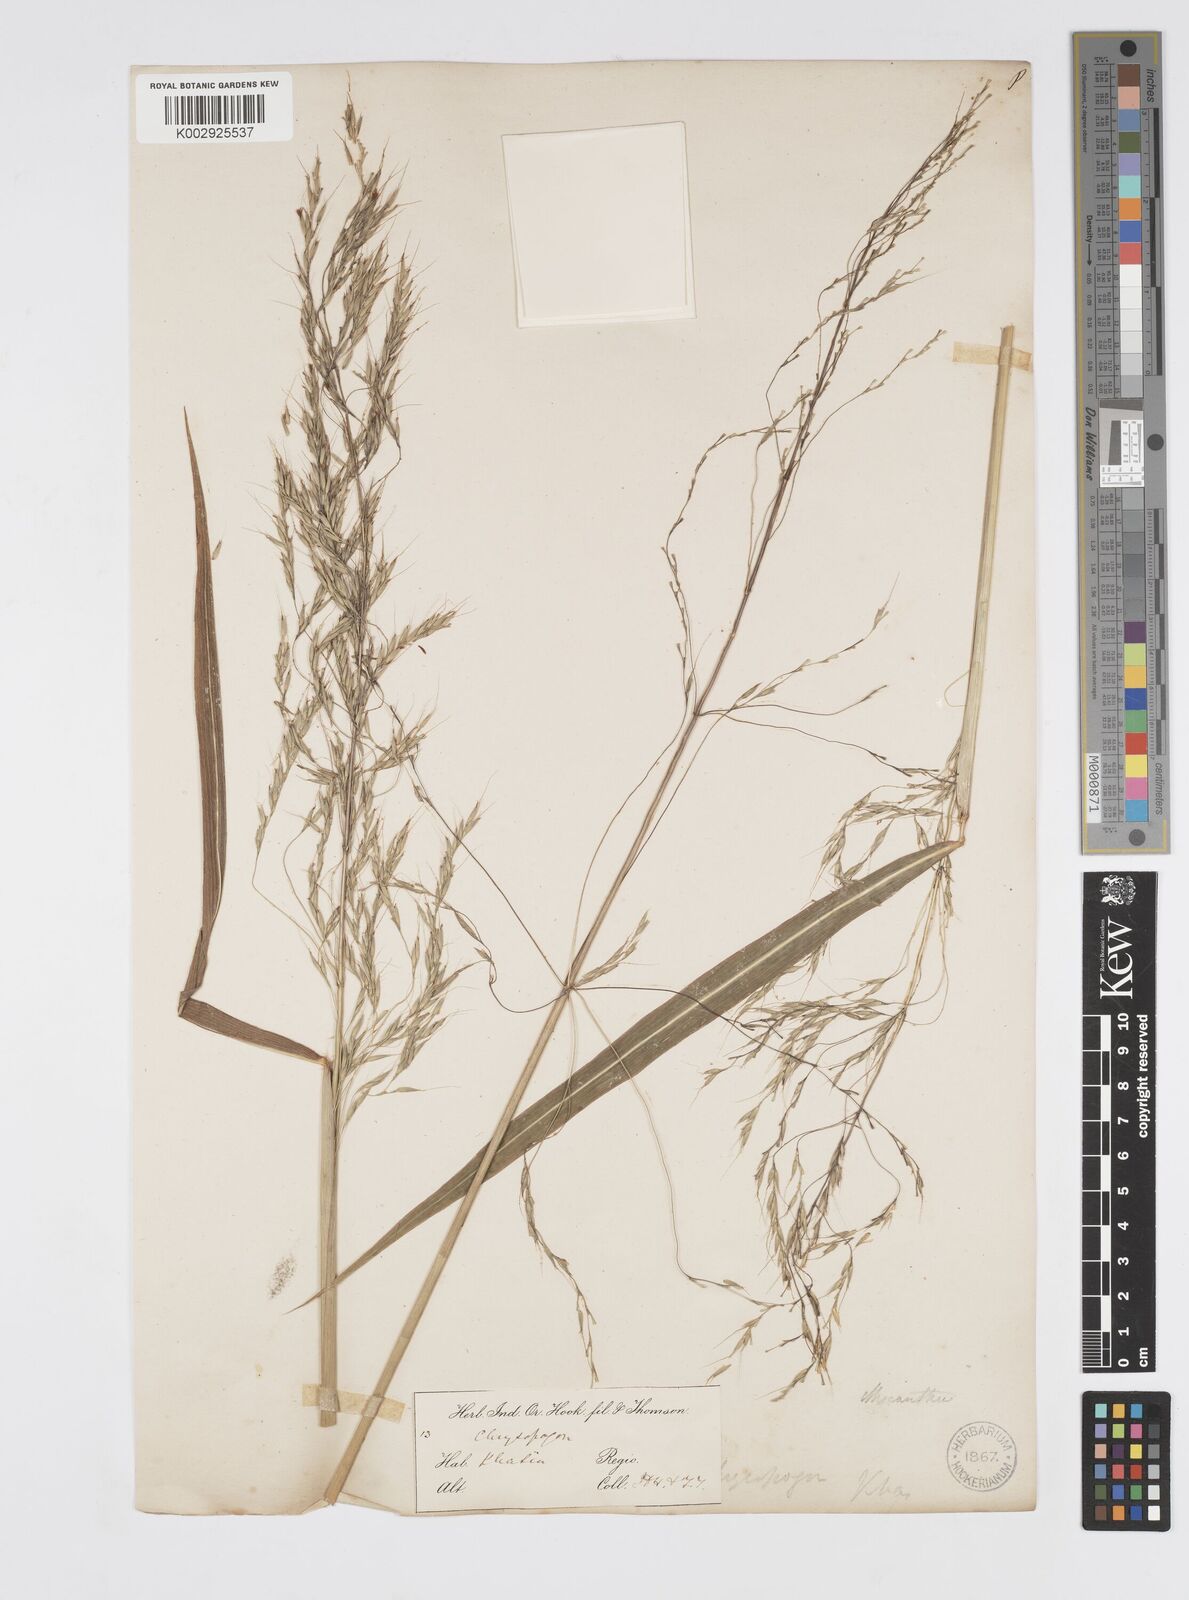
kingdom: Plantae
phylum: Tracheophyta
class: Liliopsida
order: Poales
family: Poaceae
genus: Spodiopogon
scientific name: Spodiopogon cotulifer
